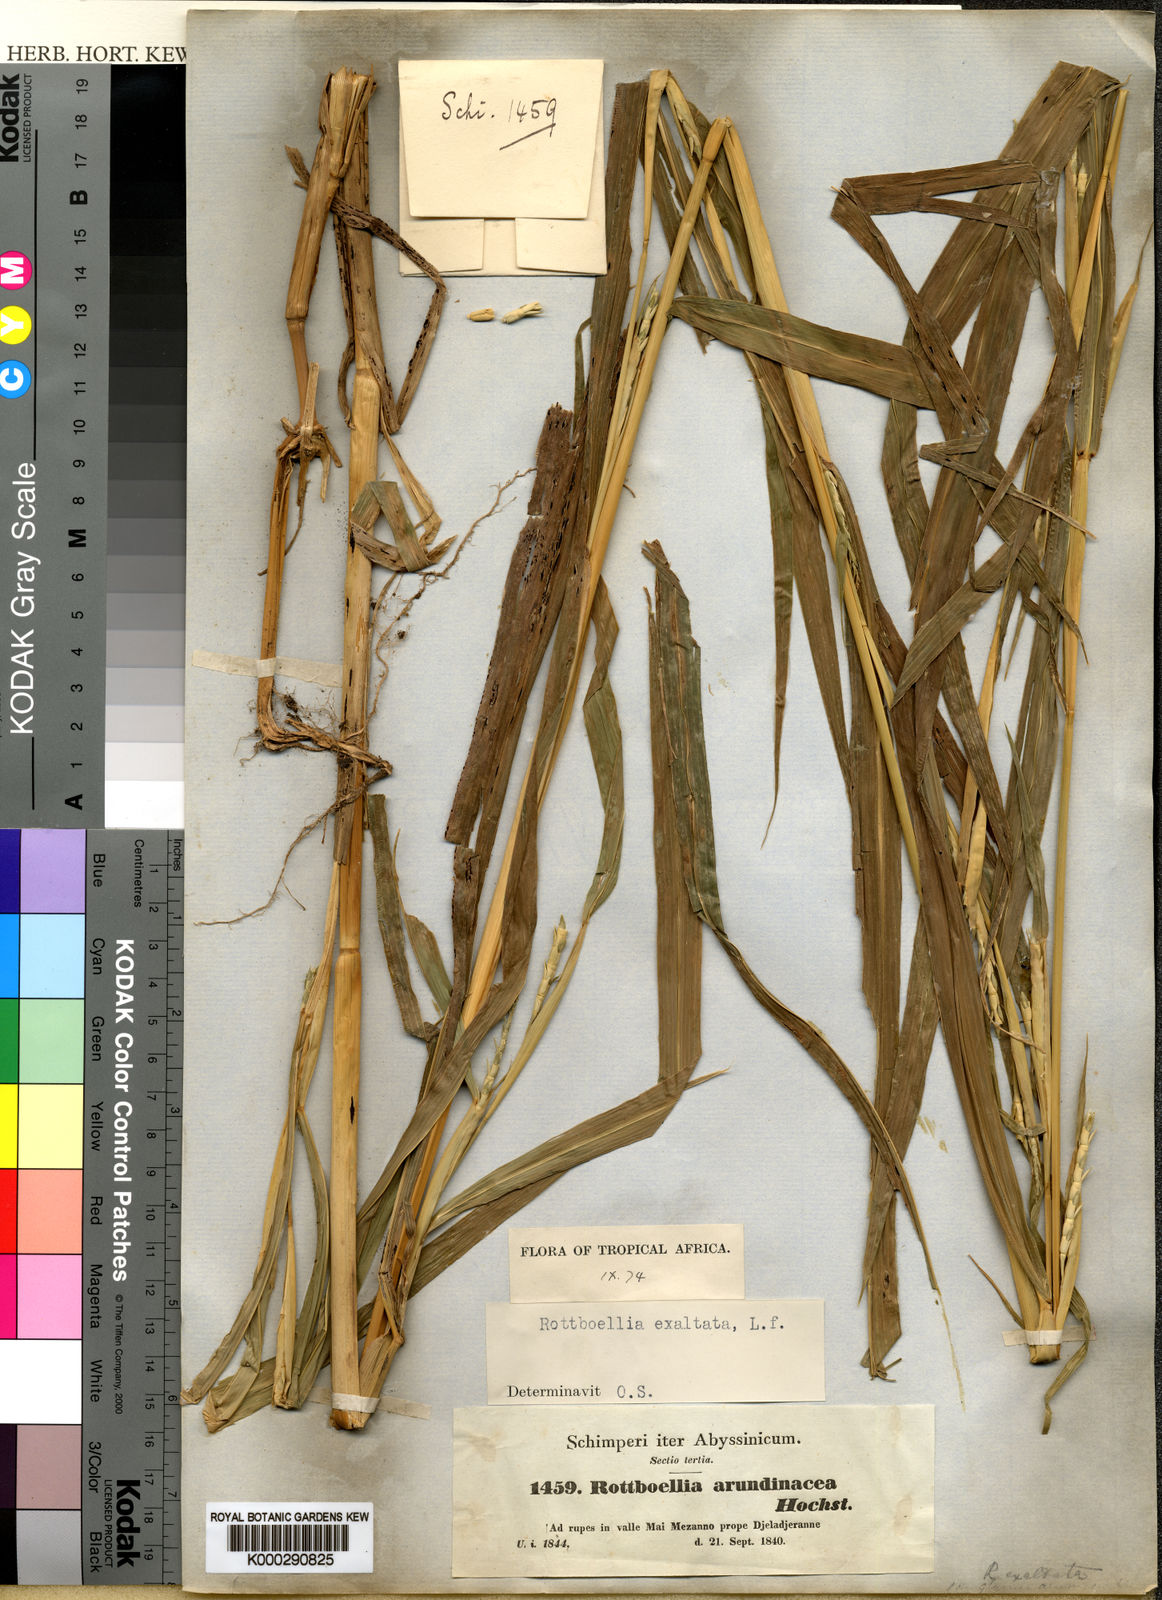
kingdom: Plantae
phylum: Tracheophyta
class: Liliopsida
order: Poales
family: Poaceae
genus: Rottboellia
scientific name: Rottboellia cochinchinensis
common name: Itchgrass
